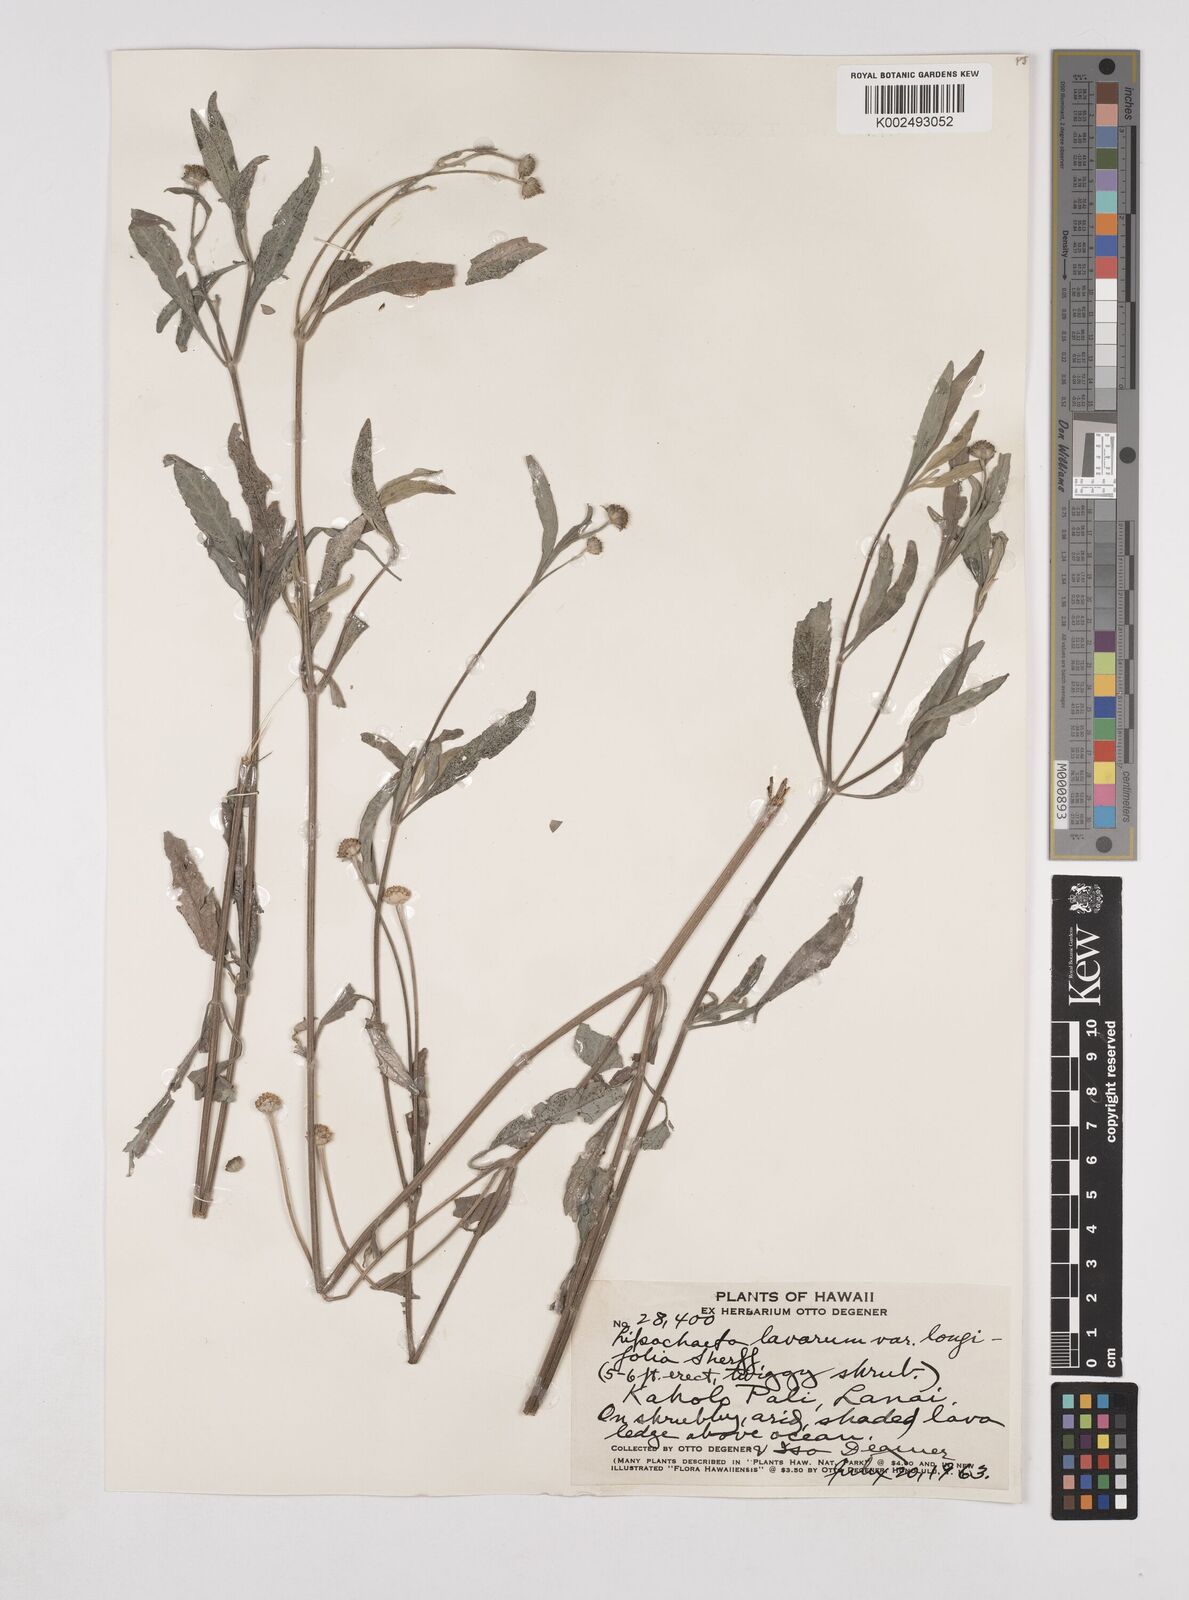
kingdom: Plantae
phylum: Tracheophyta
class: Magnoliopsida
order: Asterales
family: Asteraceae
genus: Lipochaeta
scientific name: Lipochaeta lavarum
